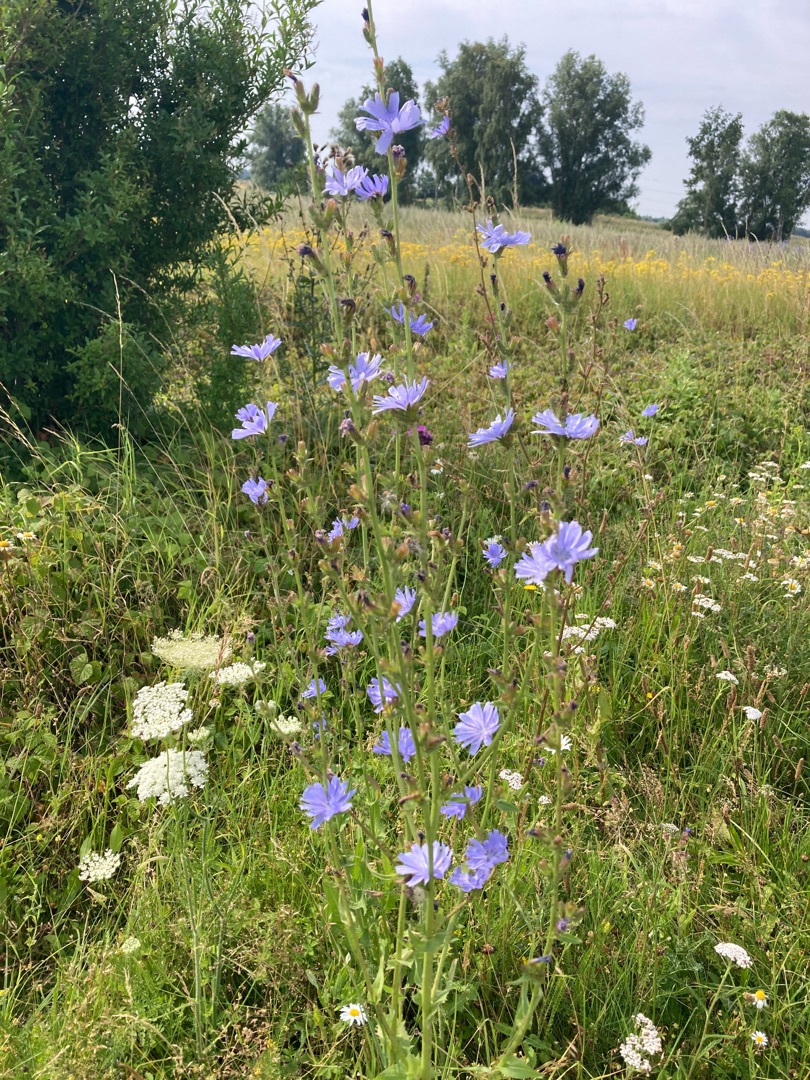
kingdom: Plantae
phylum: Tracheophyta
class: Magnoliopsida
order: Asterales
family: Asteraceae
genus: Cichorium
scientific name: Cichorium intybus
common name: Cikorie
